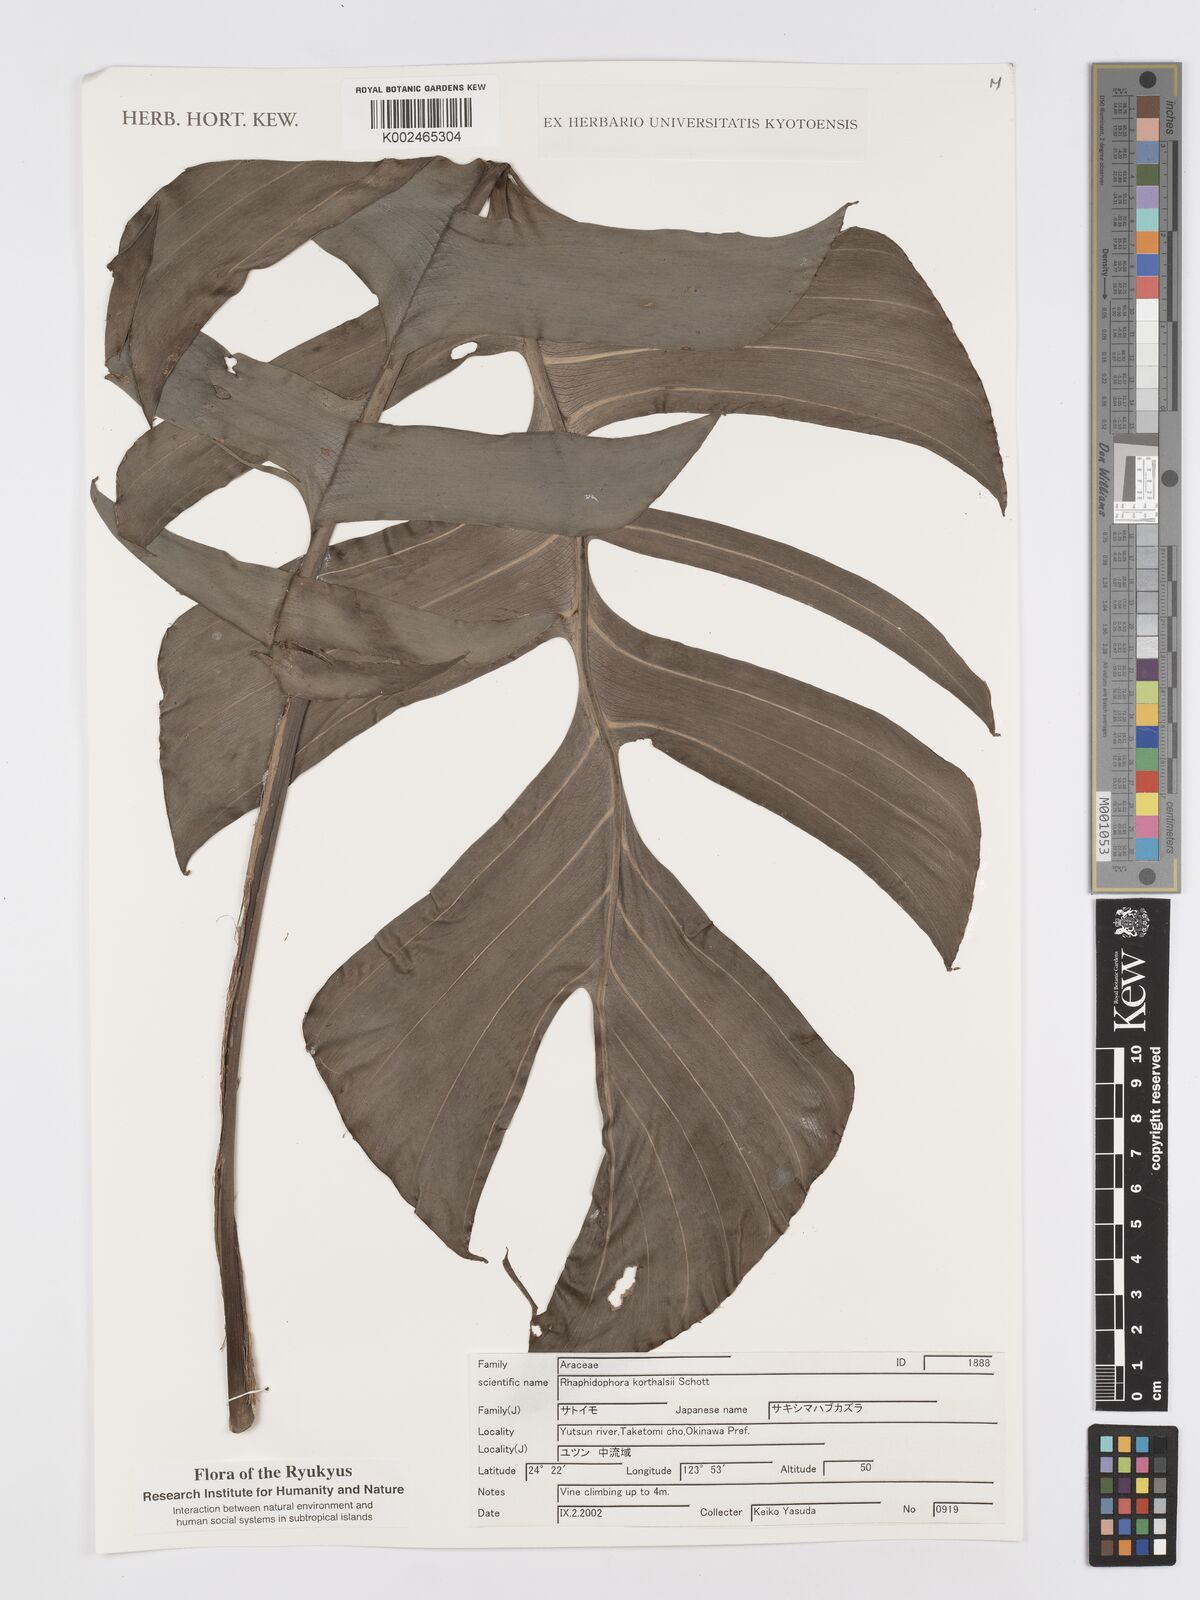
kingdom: Plantae
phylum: Tracheophyta
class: Liliopsida
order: Alismatales
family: Araceae
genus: Rhaphidophora
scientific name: Rhaphidophora korthalsii
